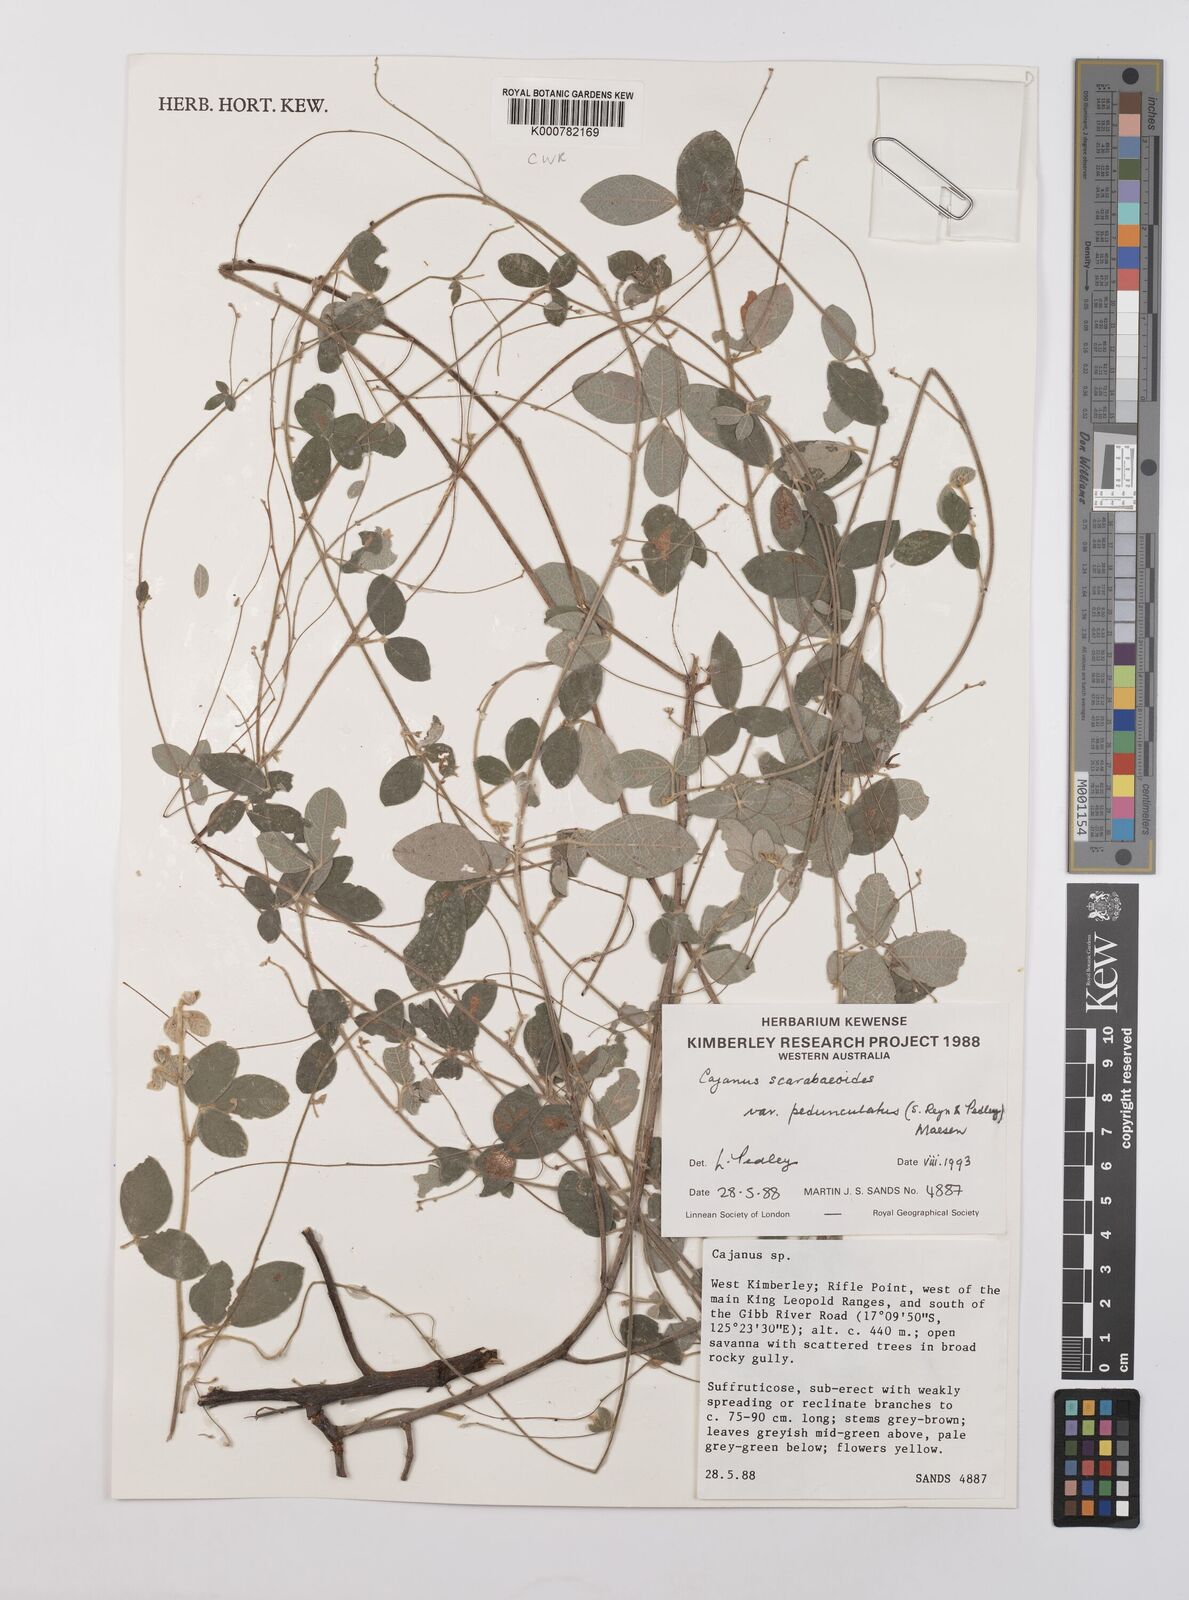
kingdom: Plantae
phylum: Tracheophyta
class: Magnoliopsida
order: Fabales
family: Fabaceae
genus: Cajanus
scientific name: Cajanus scarabaeoides
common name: Showy pigeonpea
